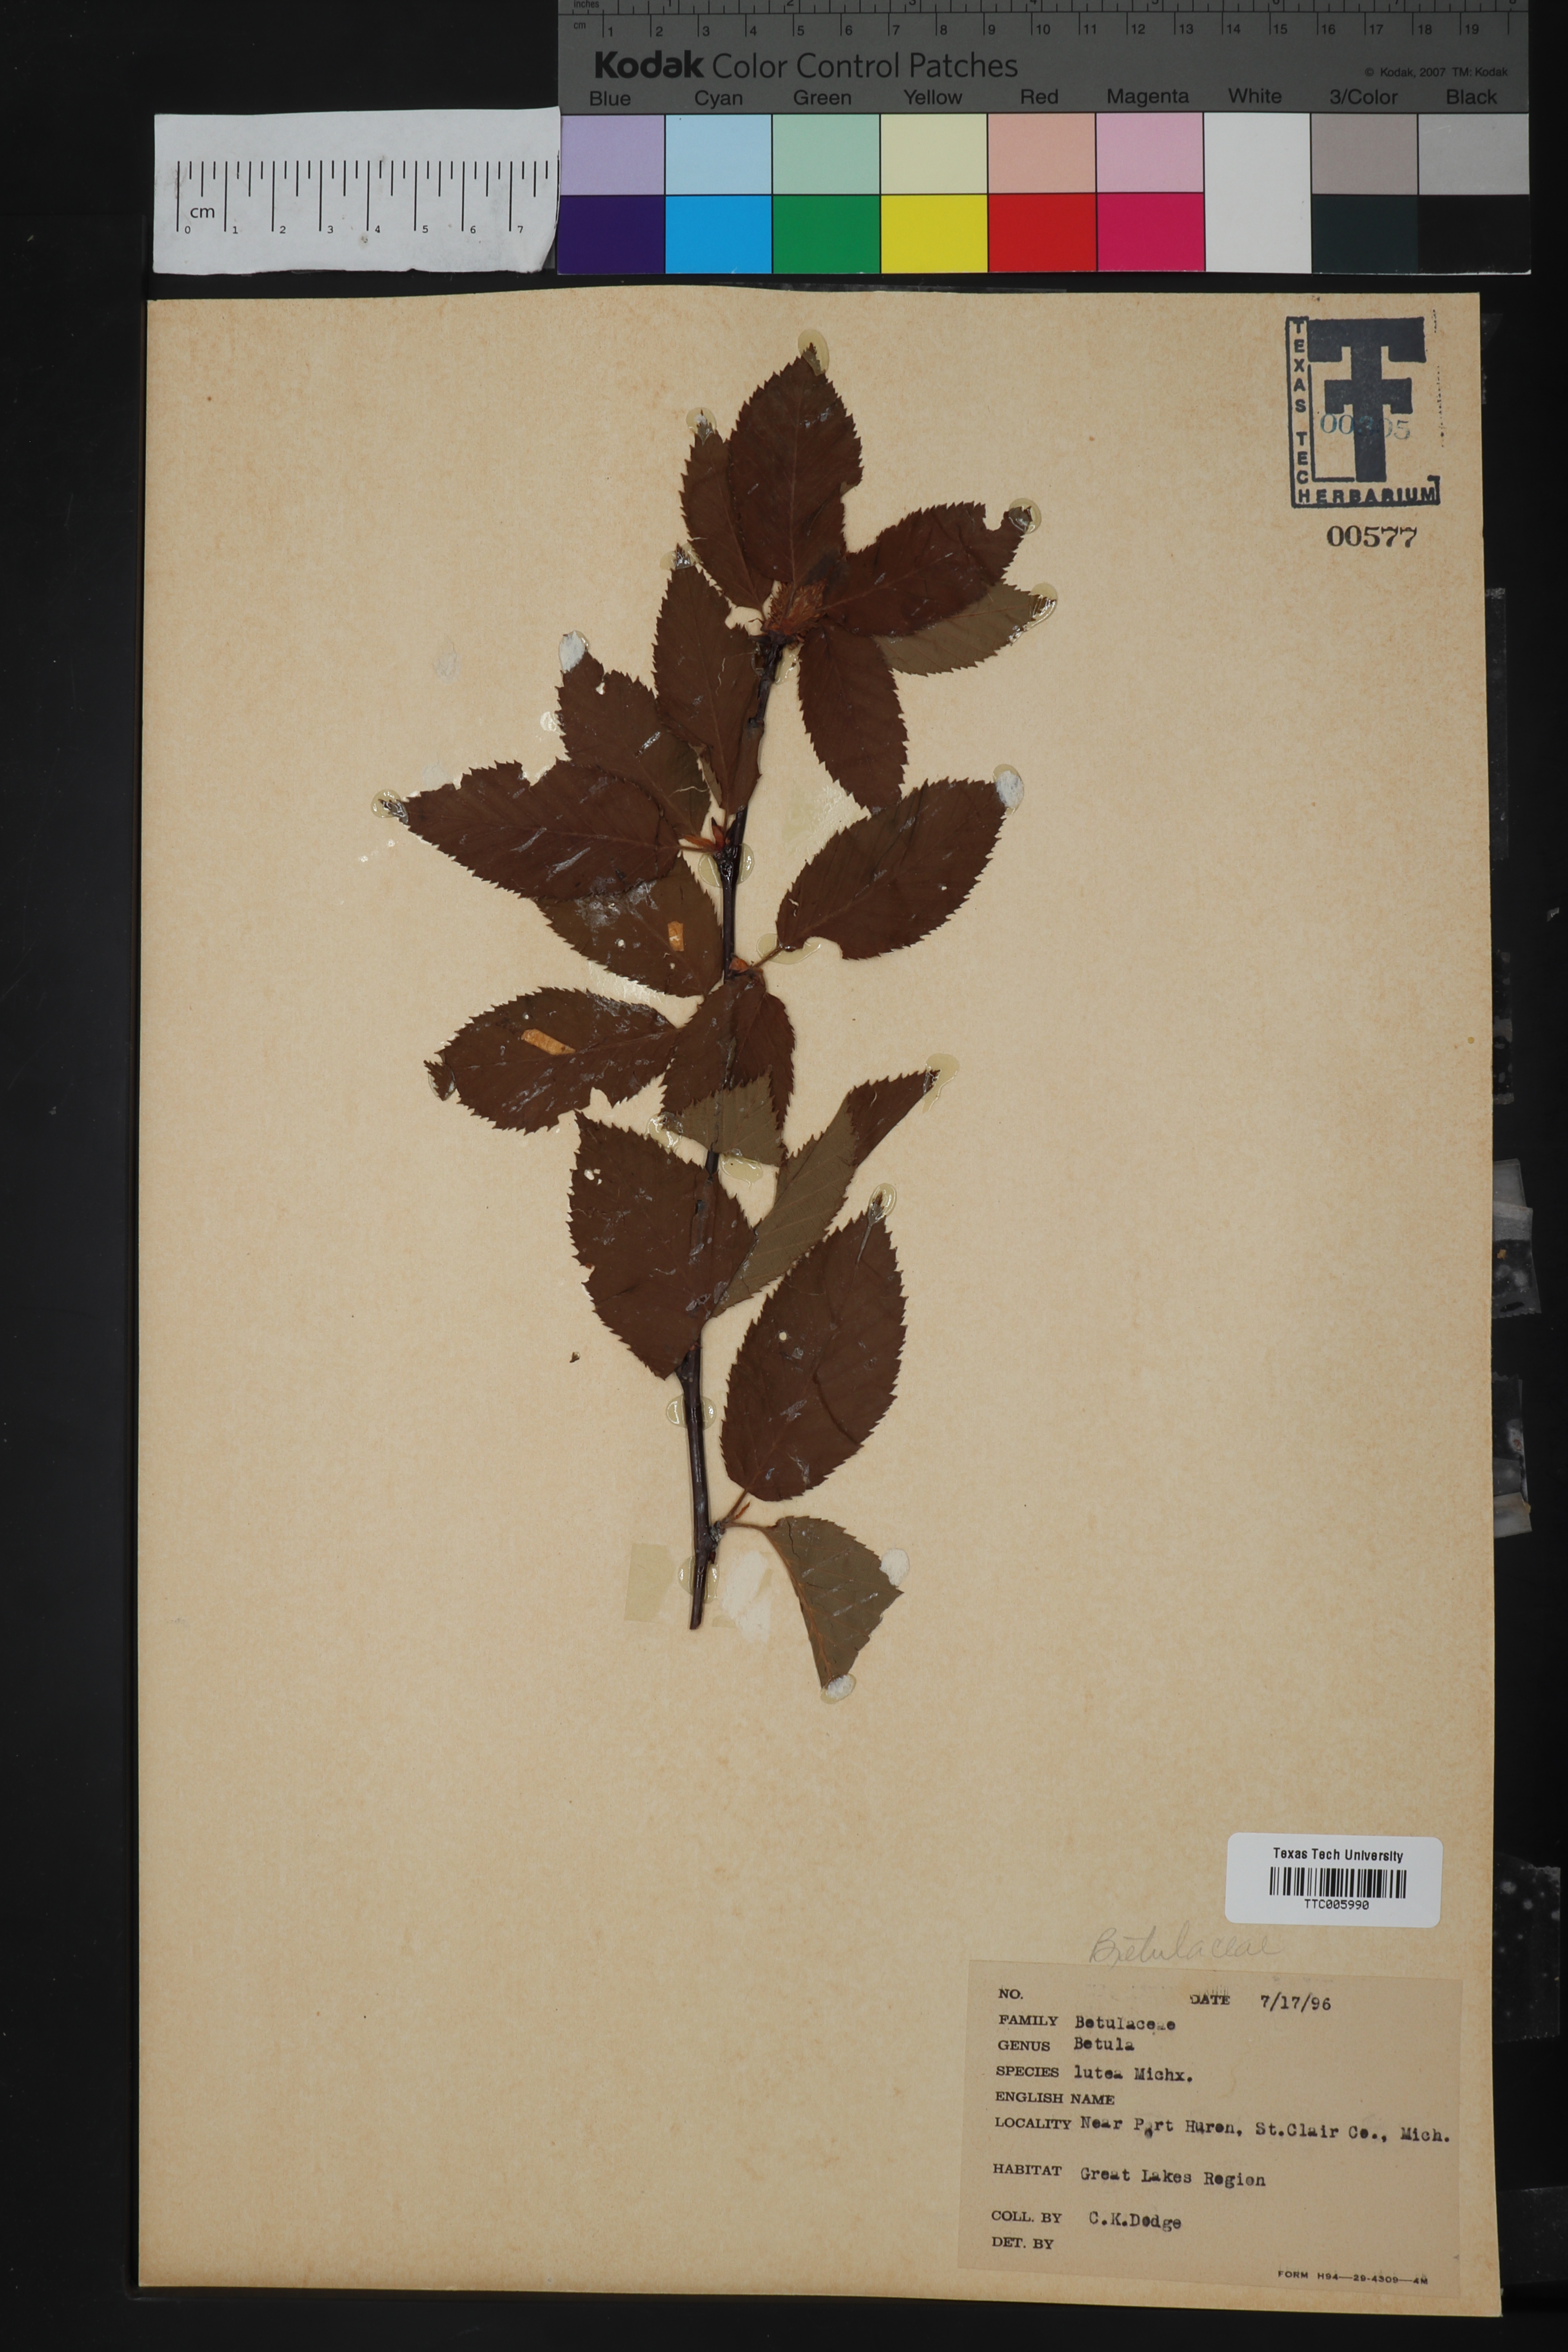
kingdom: Plantae
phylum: Tracheophyta
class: Magnoliopsida
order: Fagales
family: Betulaceae
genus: Betula
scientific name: Betula alleghaniensis
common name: Yellow birch
